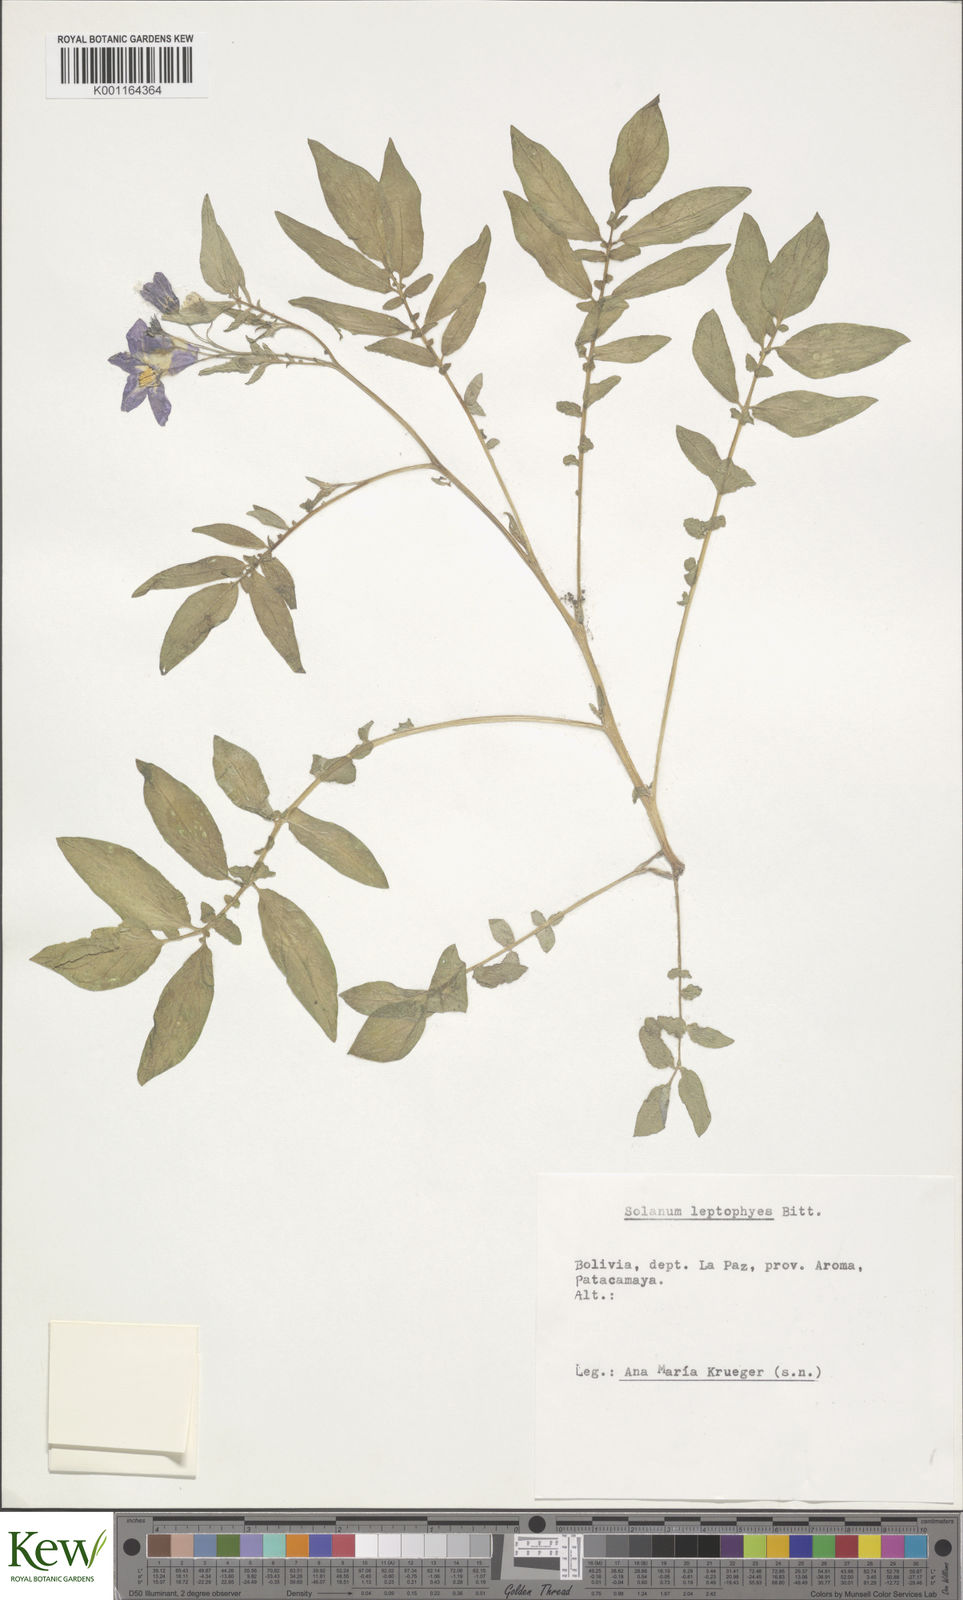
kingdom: Plantae
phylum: Tracheophyta
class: Magnoliopsida
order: Solanales
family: Solanaceae
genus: Solanum
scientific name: Solanum brevicaule
